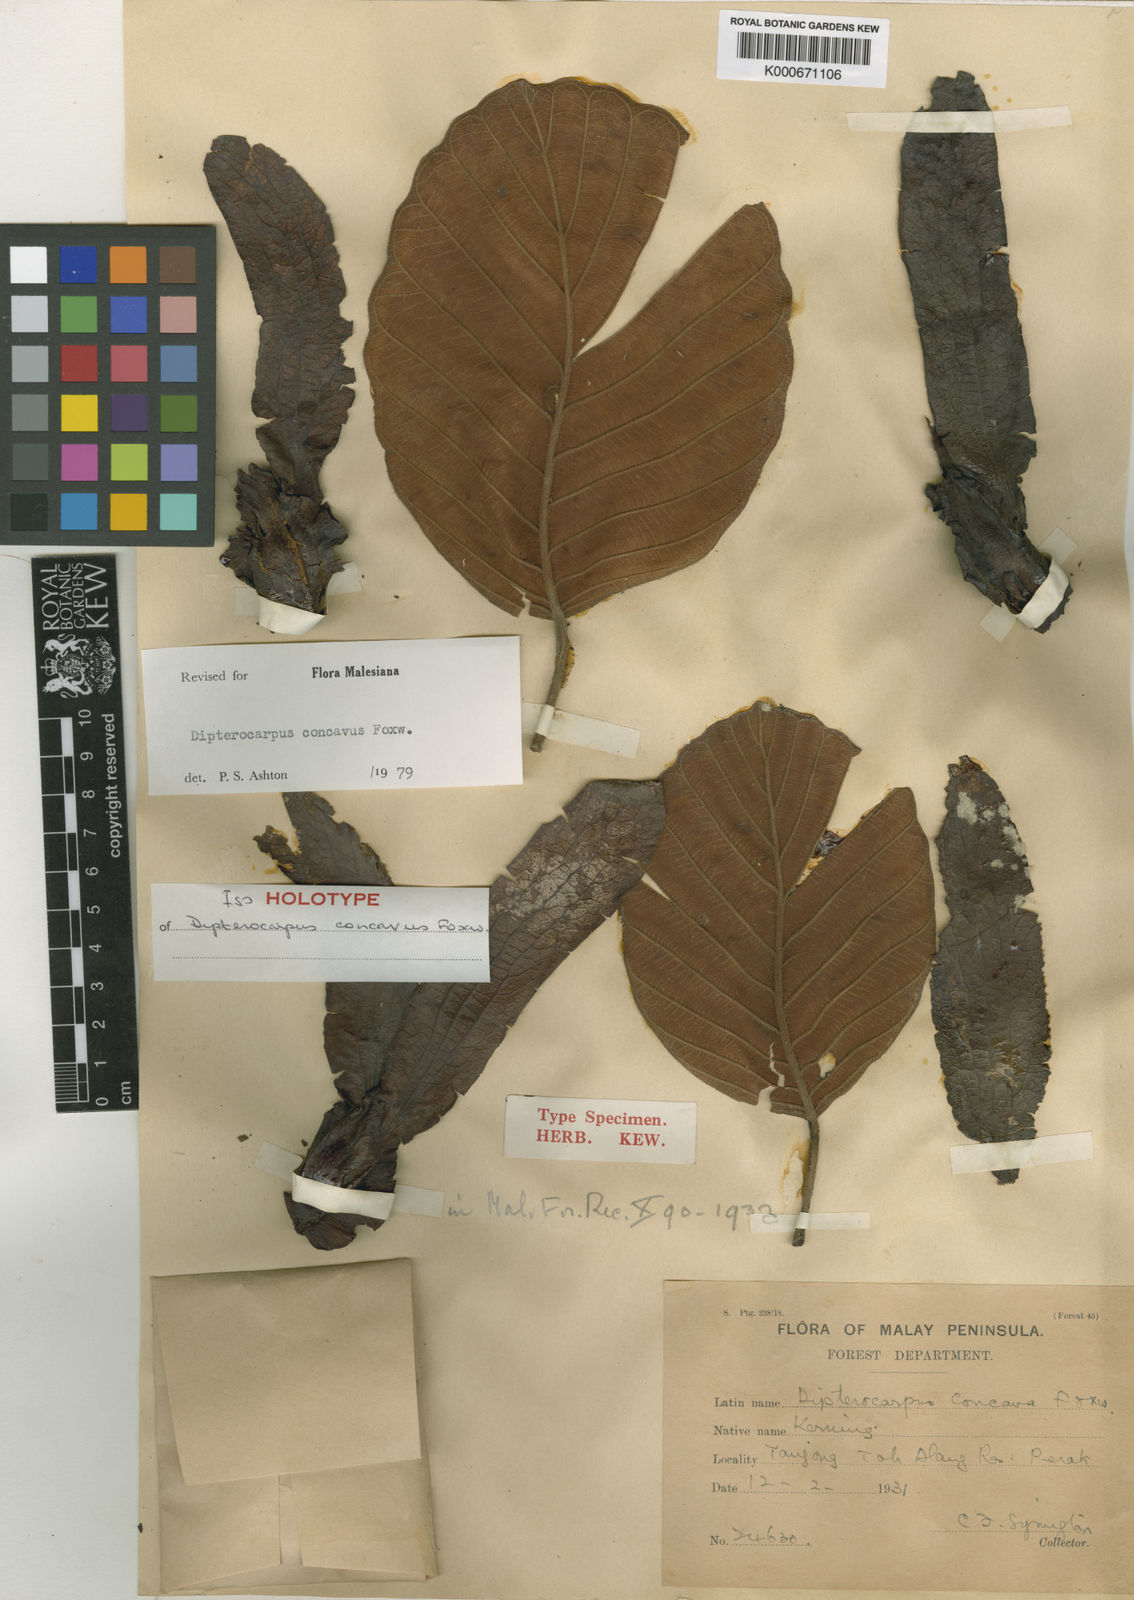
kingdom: Plantae
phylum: Tracheophyta
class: Magnoliopsida
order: Malvales
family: Dipterocarpaceae
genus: Dipterocarpus
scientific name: Dipterocarpus concavus
